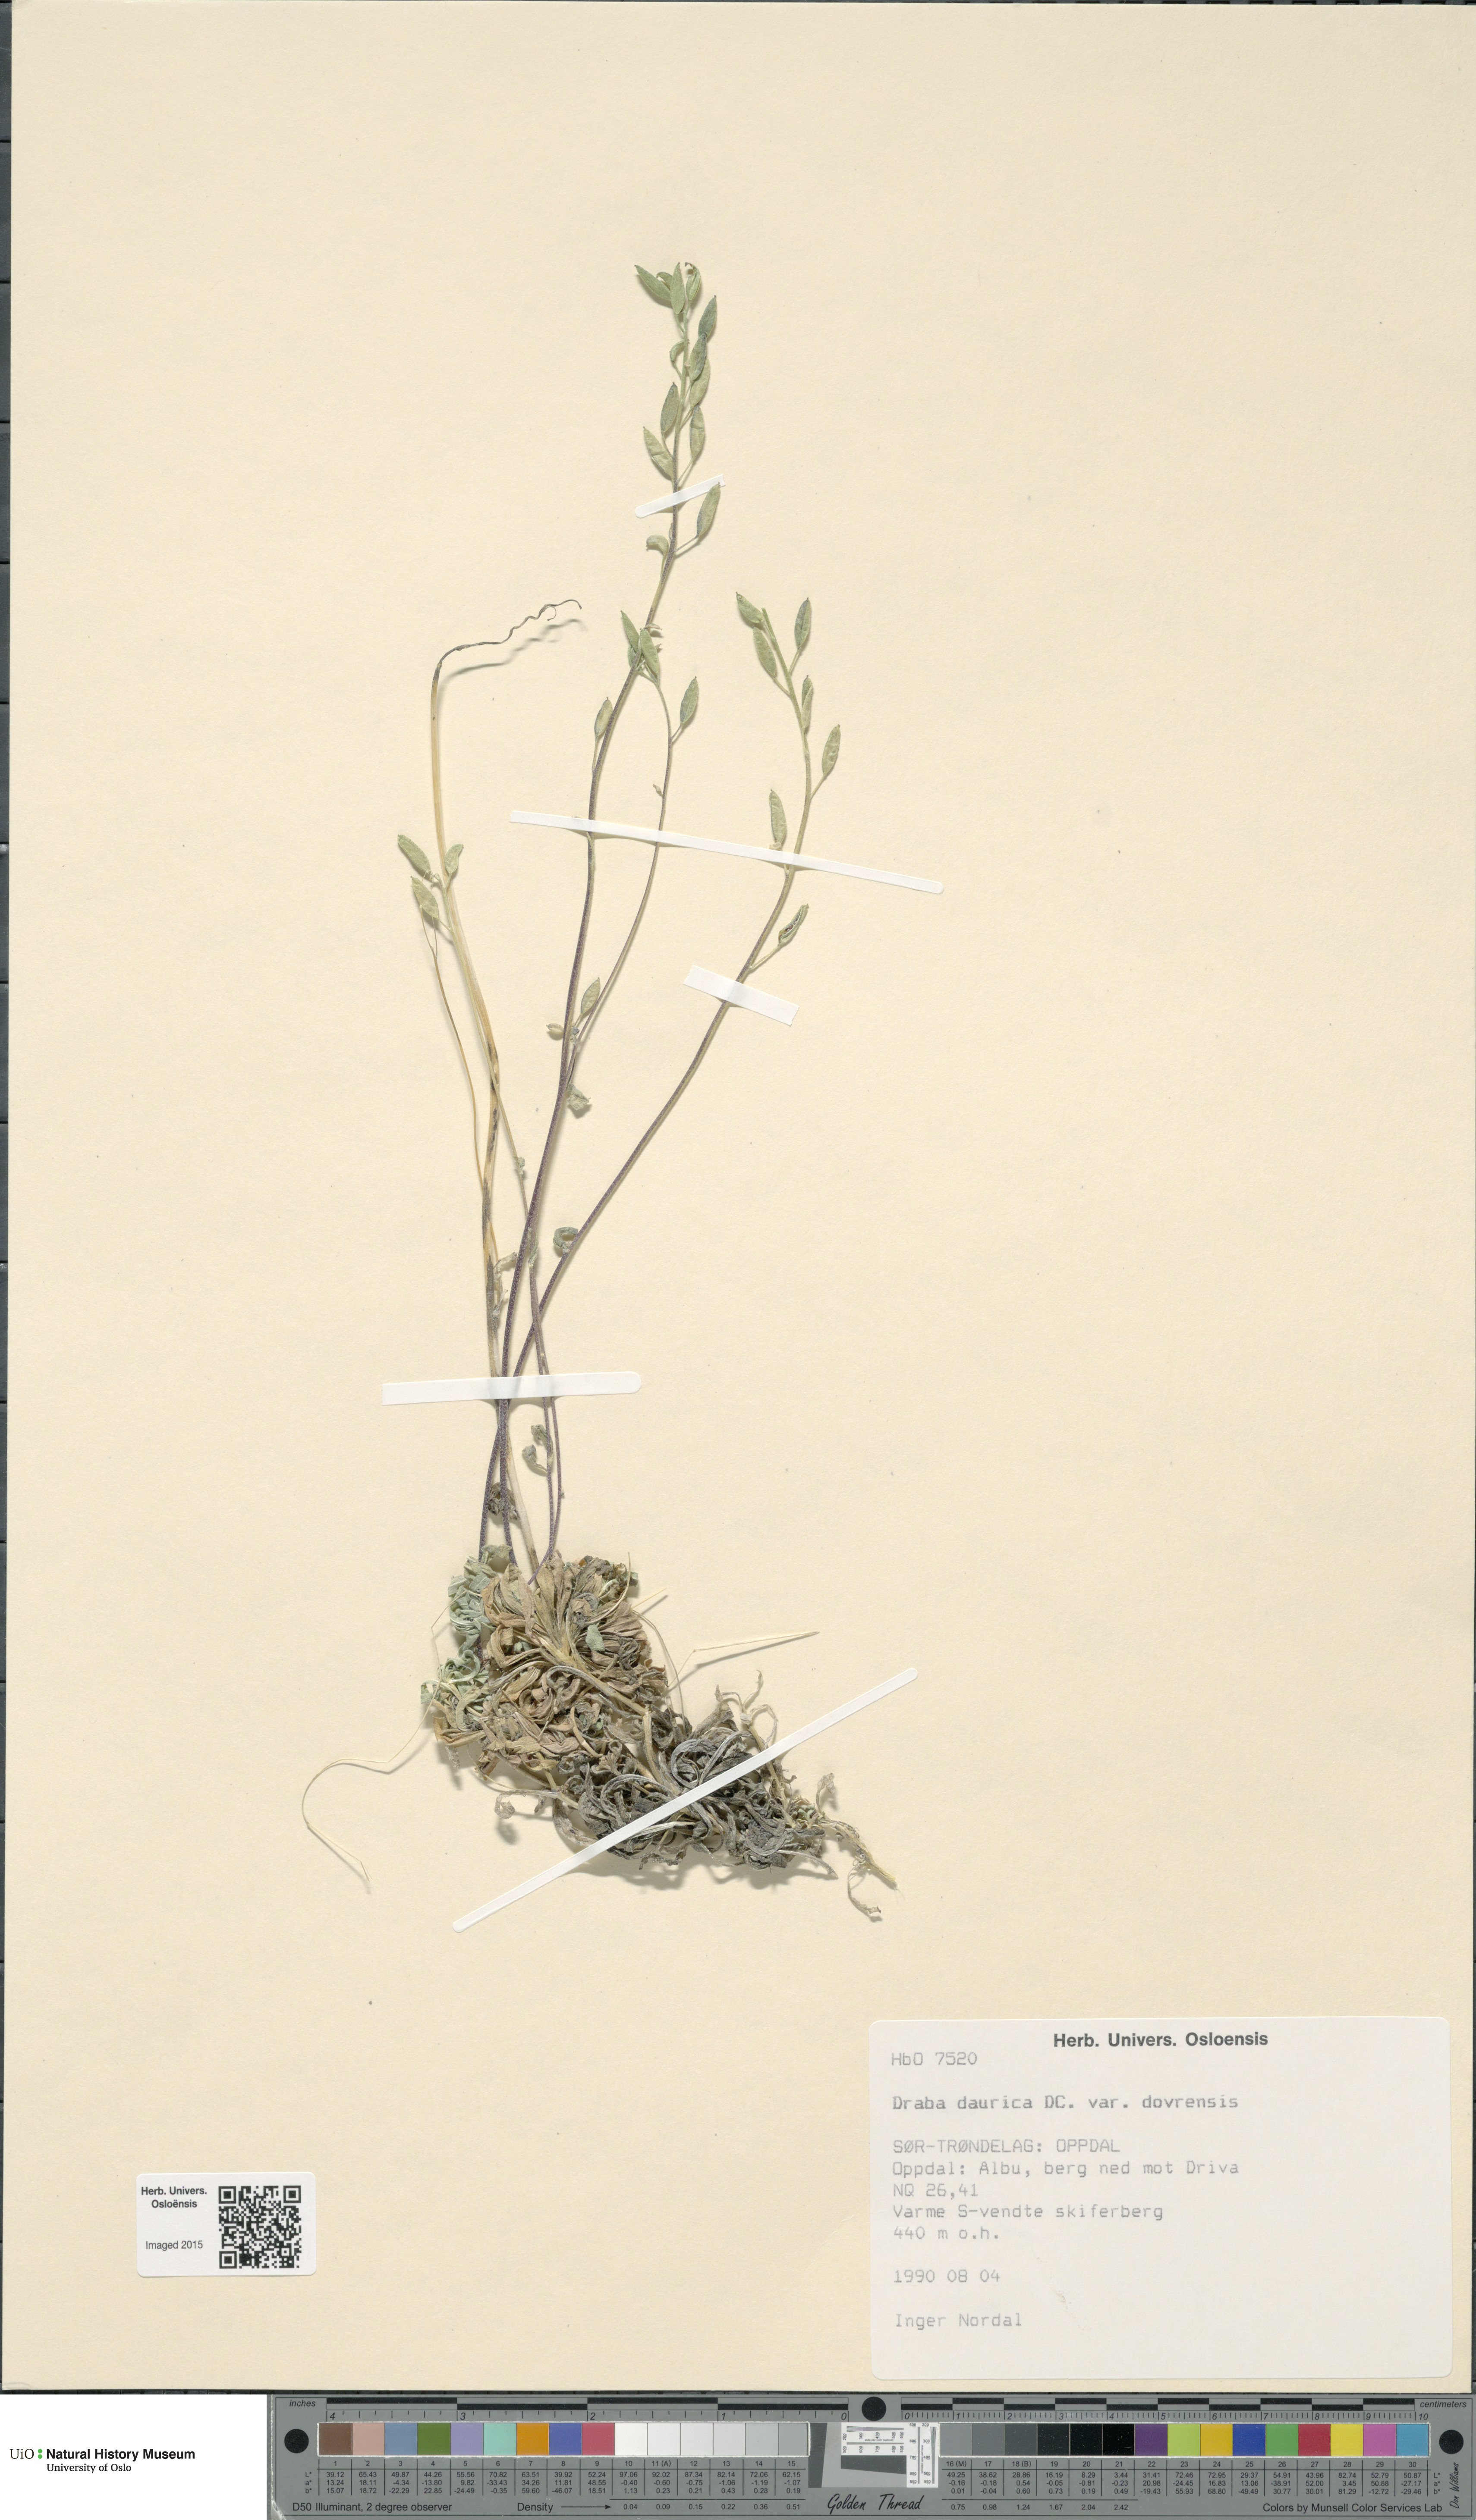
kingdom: Plantae
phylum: Tracheophyta
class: Magnoliopsida
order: Brassicales
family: Brassicaceae
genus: Draba
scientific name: Draba glabella
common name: Glaucous draba
